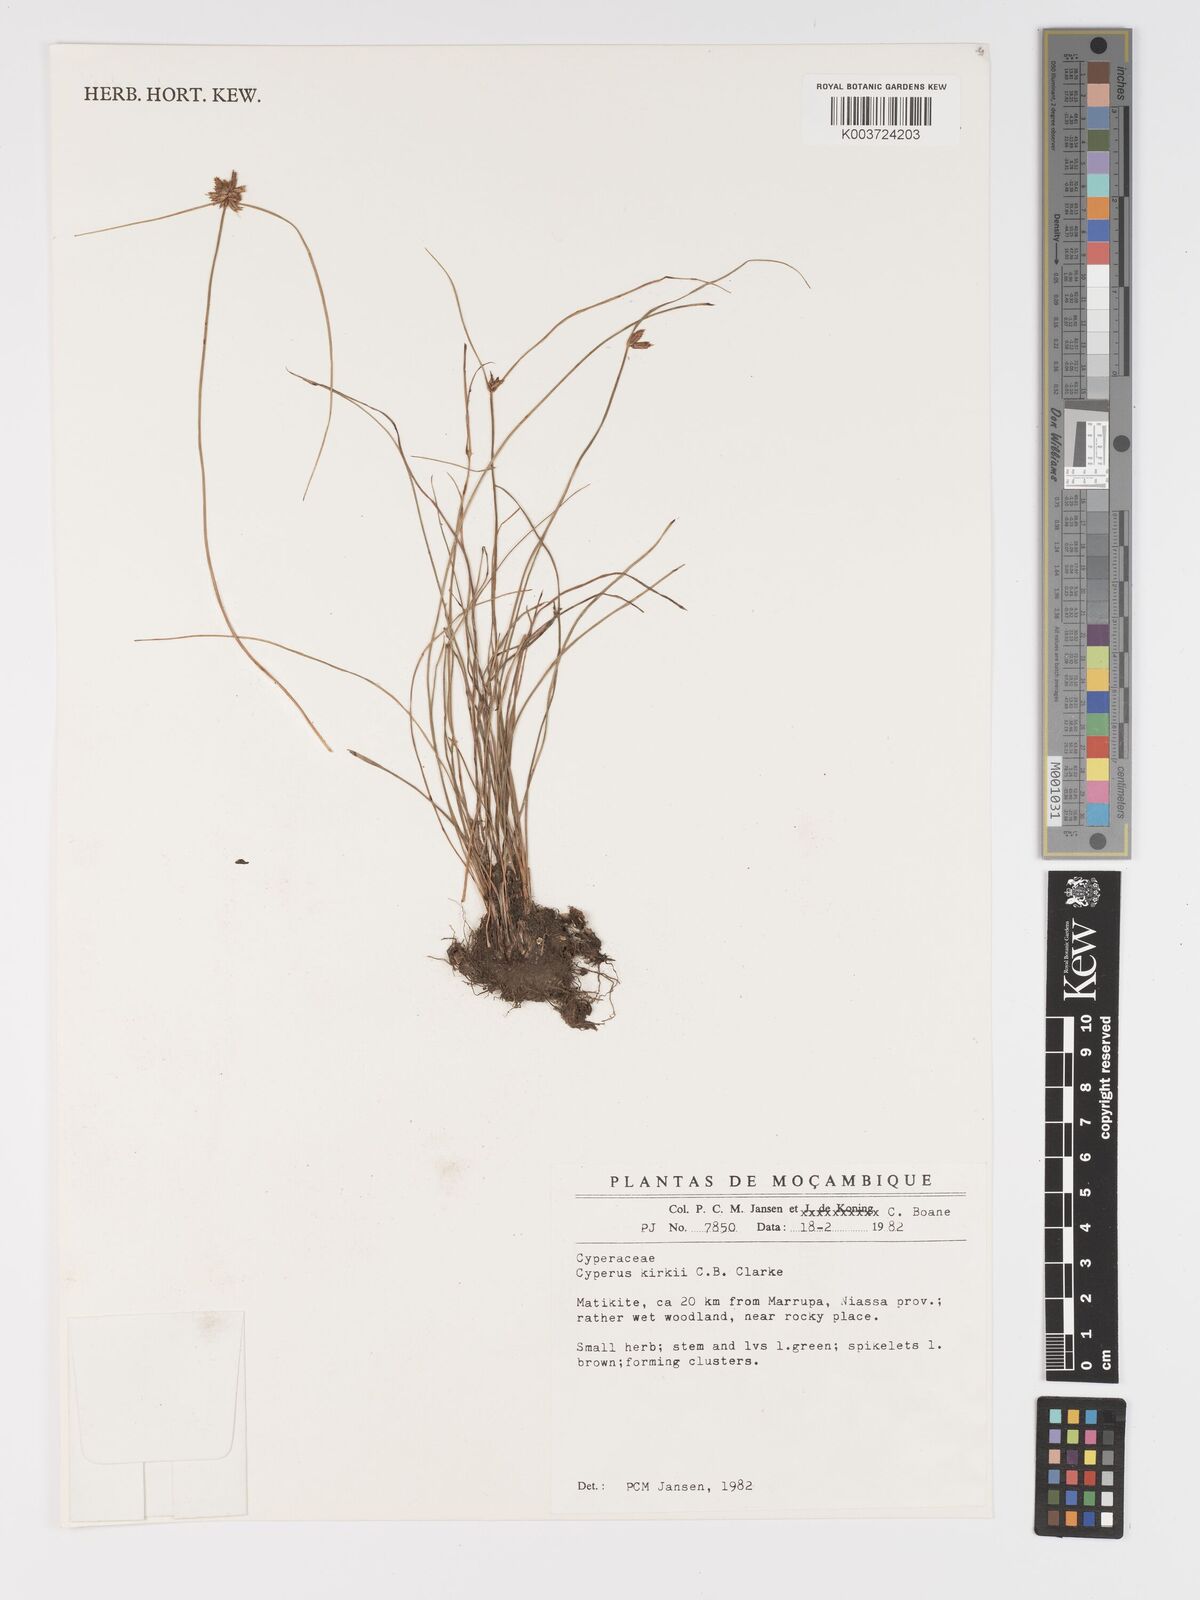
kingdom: Plantae
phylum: Tracheophyta
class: Liliopsida
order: Poales
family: Cyperaceae
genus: Cyperus
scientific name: Cyperus semitrifidus
